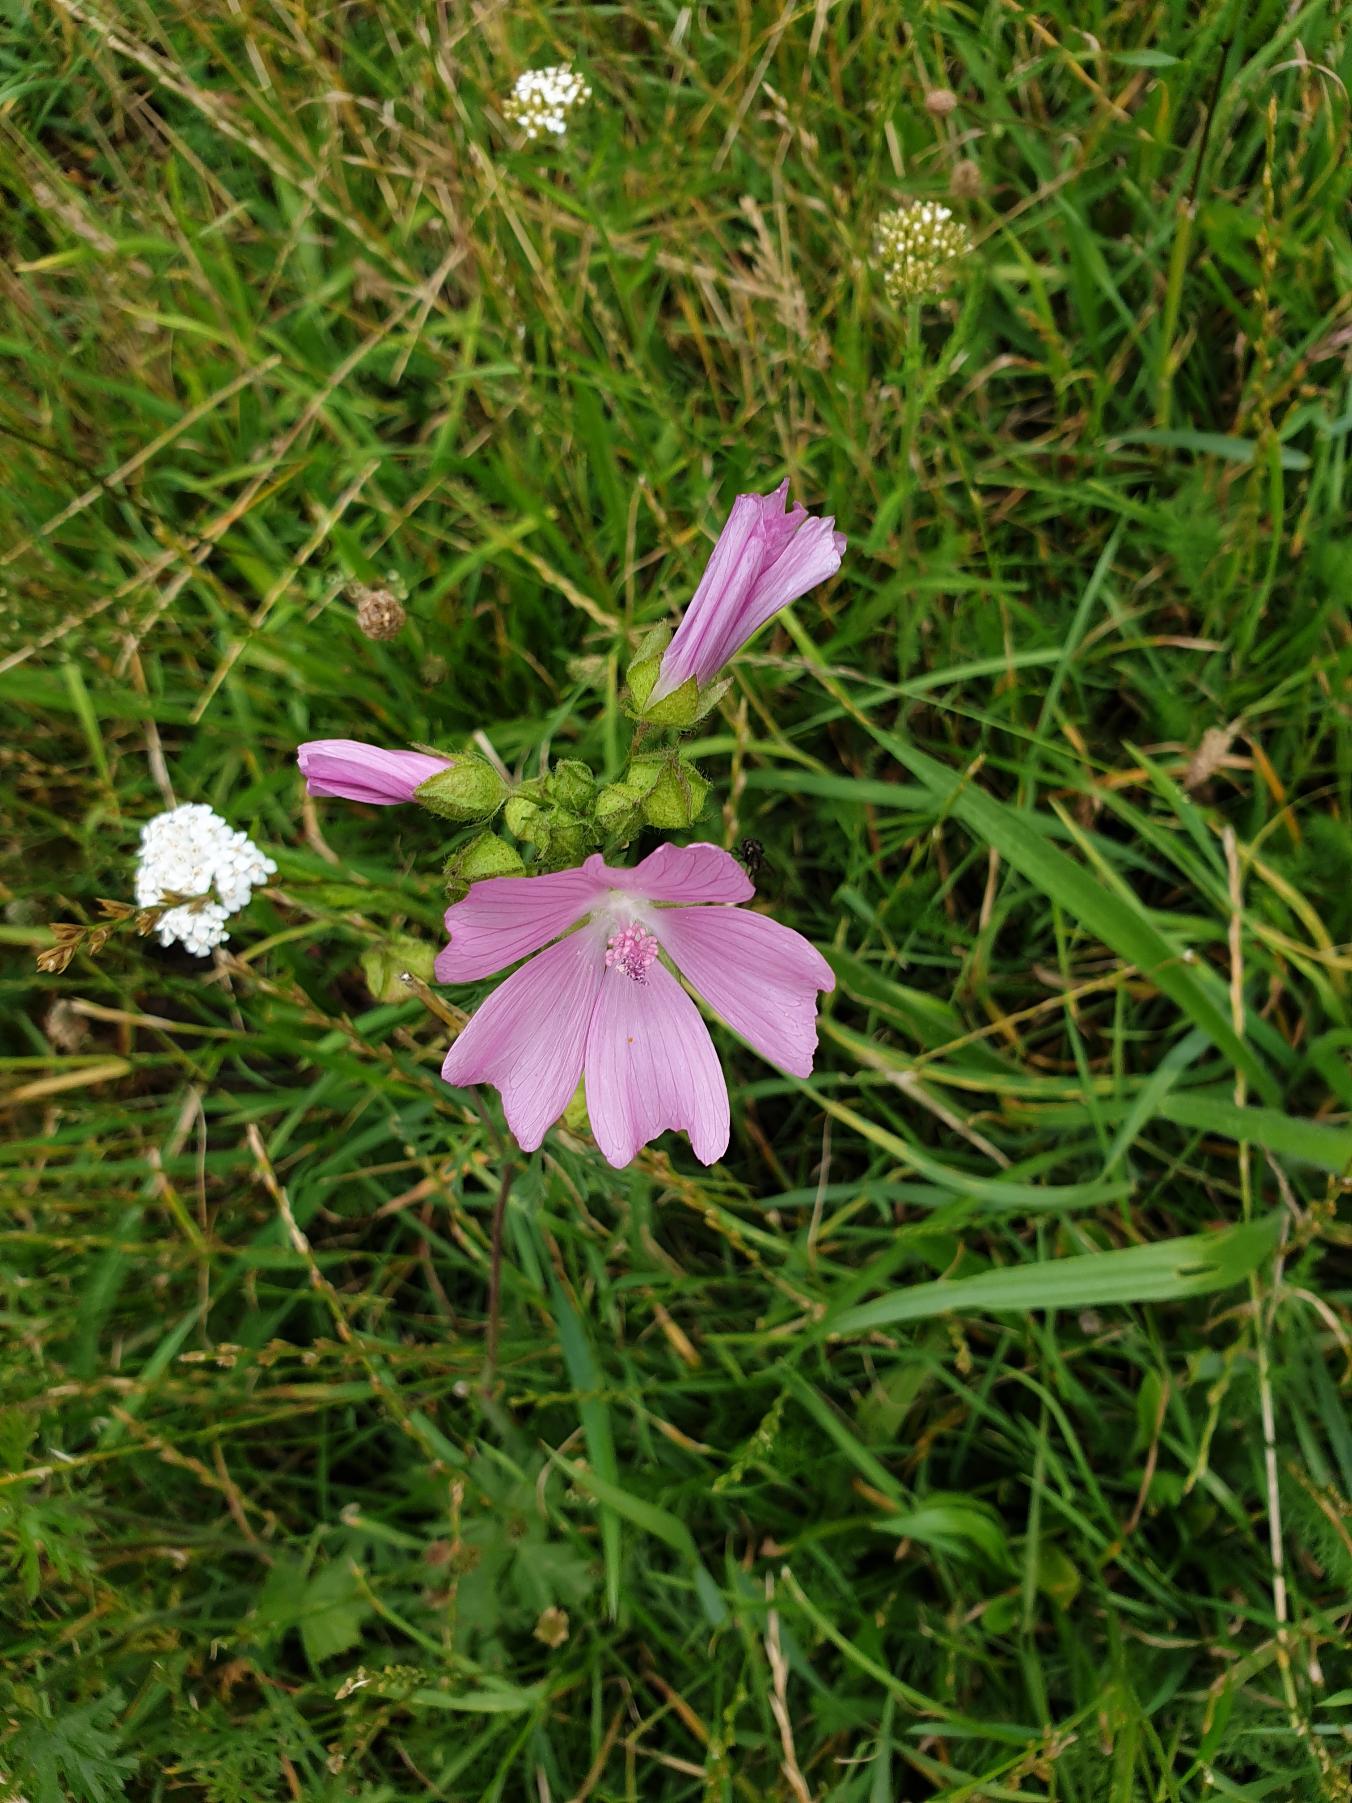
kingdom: Plantae
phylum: Tracheophyta
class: Magnoliopsida
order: Malvales
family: Malvaceae
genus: Malva
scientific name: Malva moschata
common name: Moskus-katost
